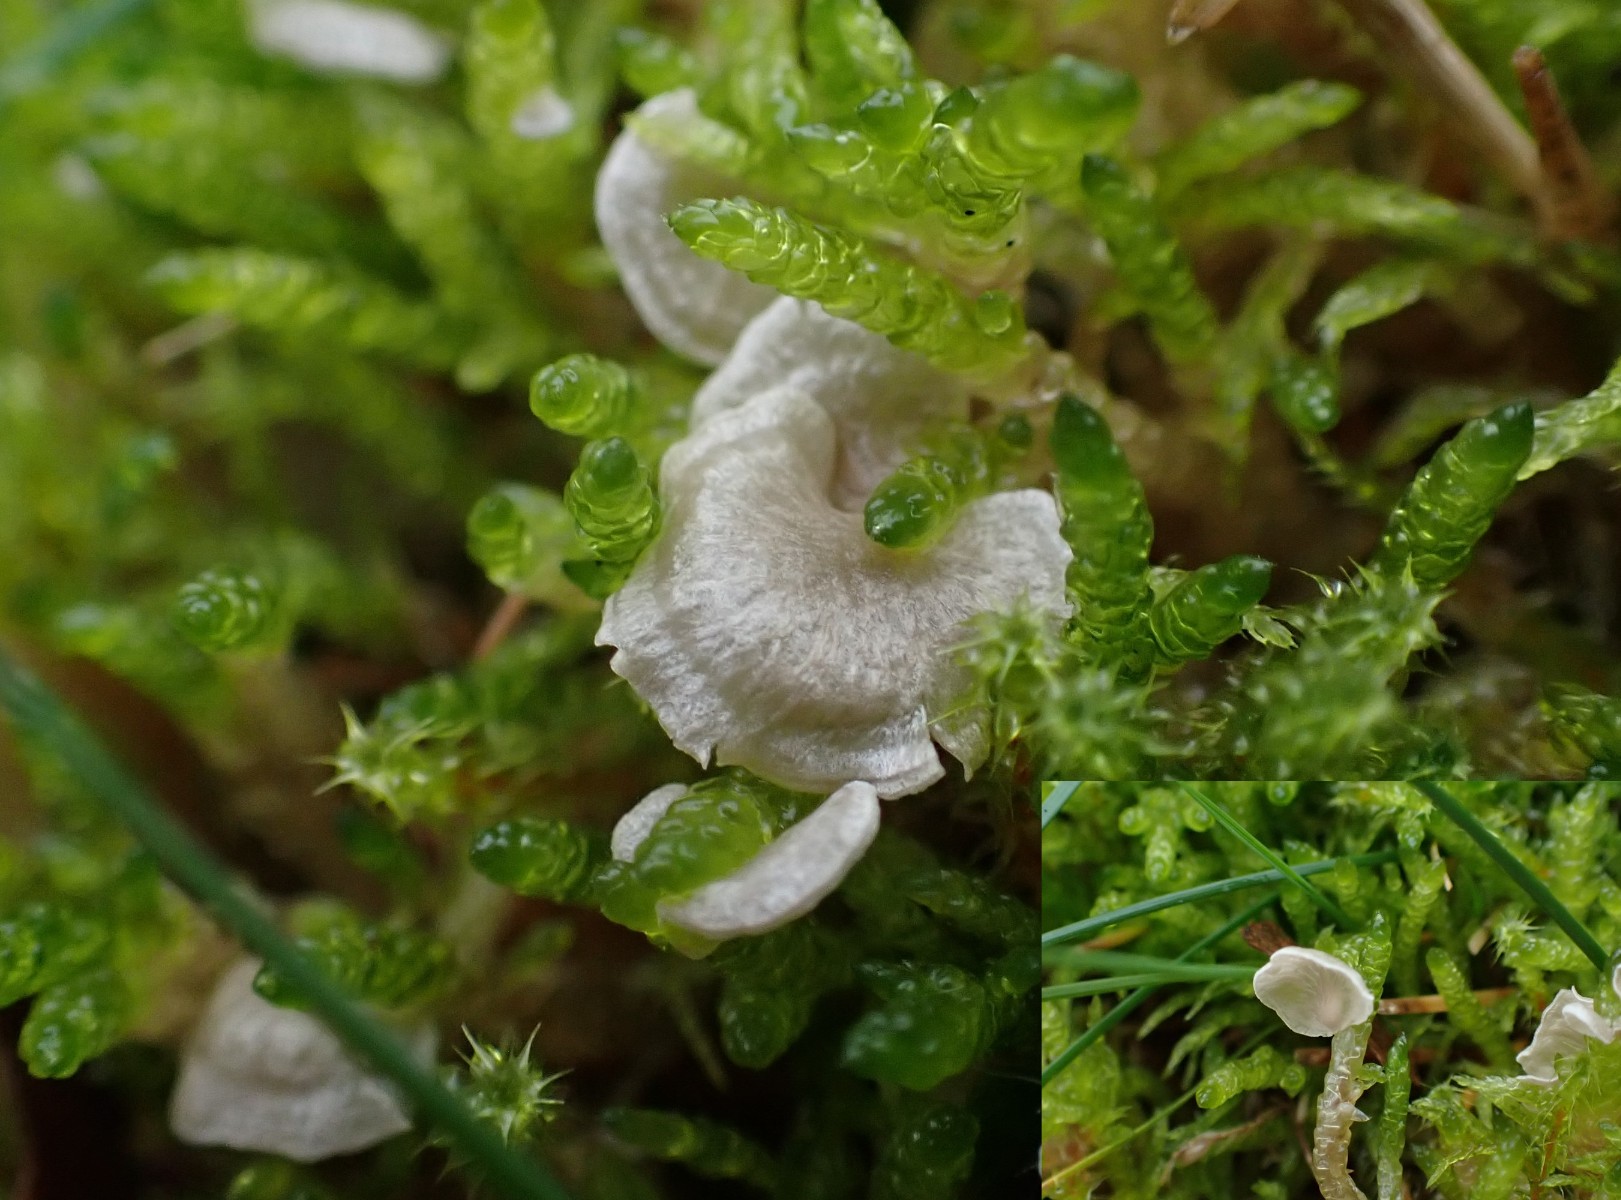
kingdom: Fungi
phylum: Basidiomycota
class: Agaricomycetes
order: Agaricales
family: Hygrophoraceae
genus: Arrhenia
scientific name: Arrhenia retiruga
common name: lille fontænehat
